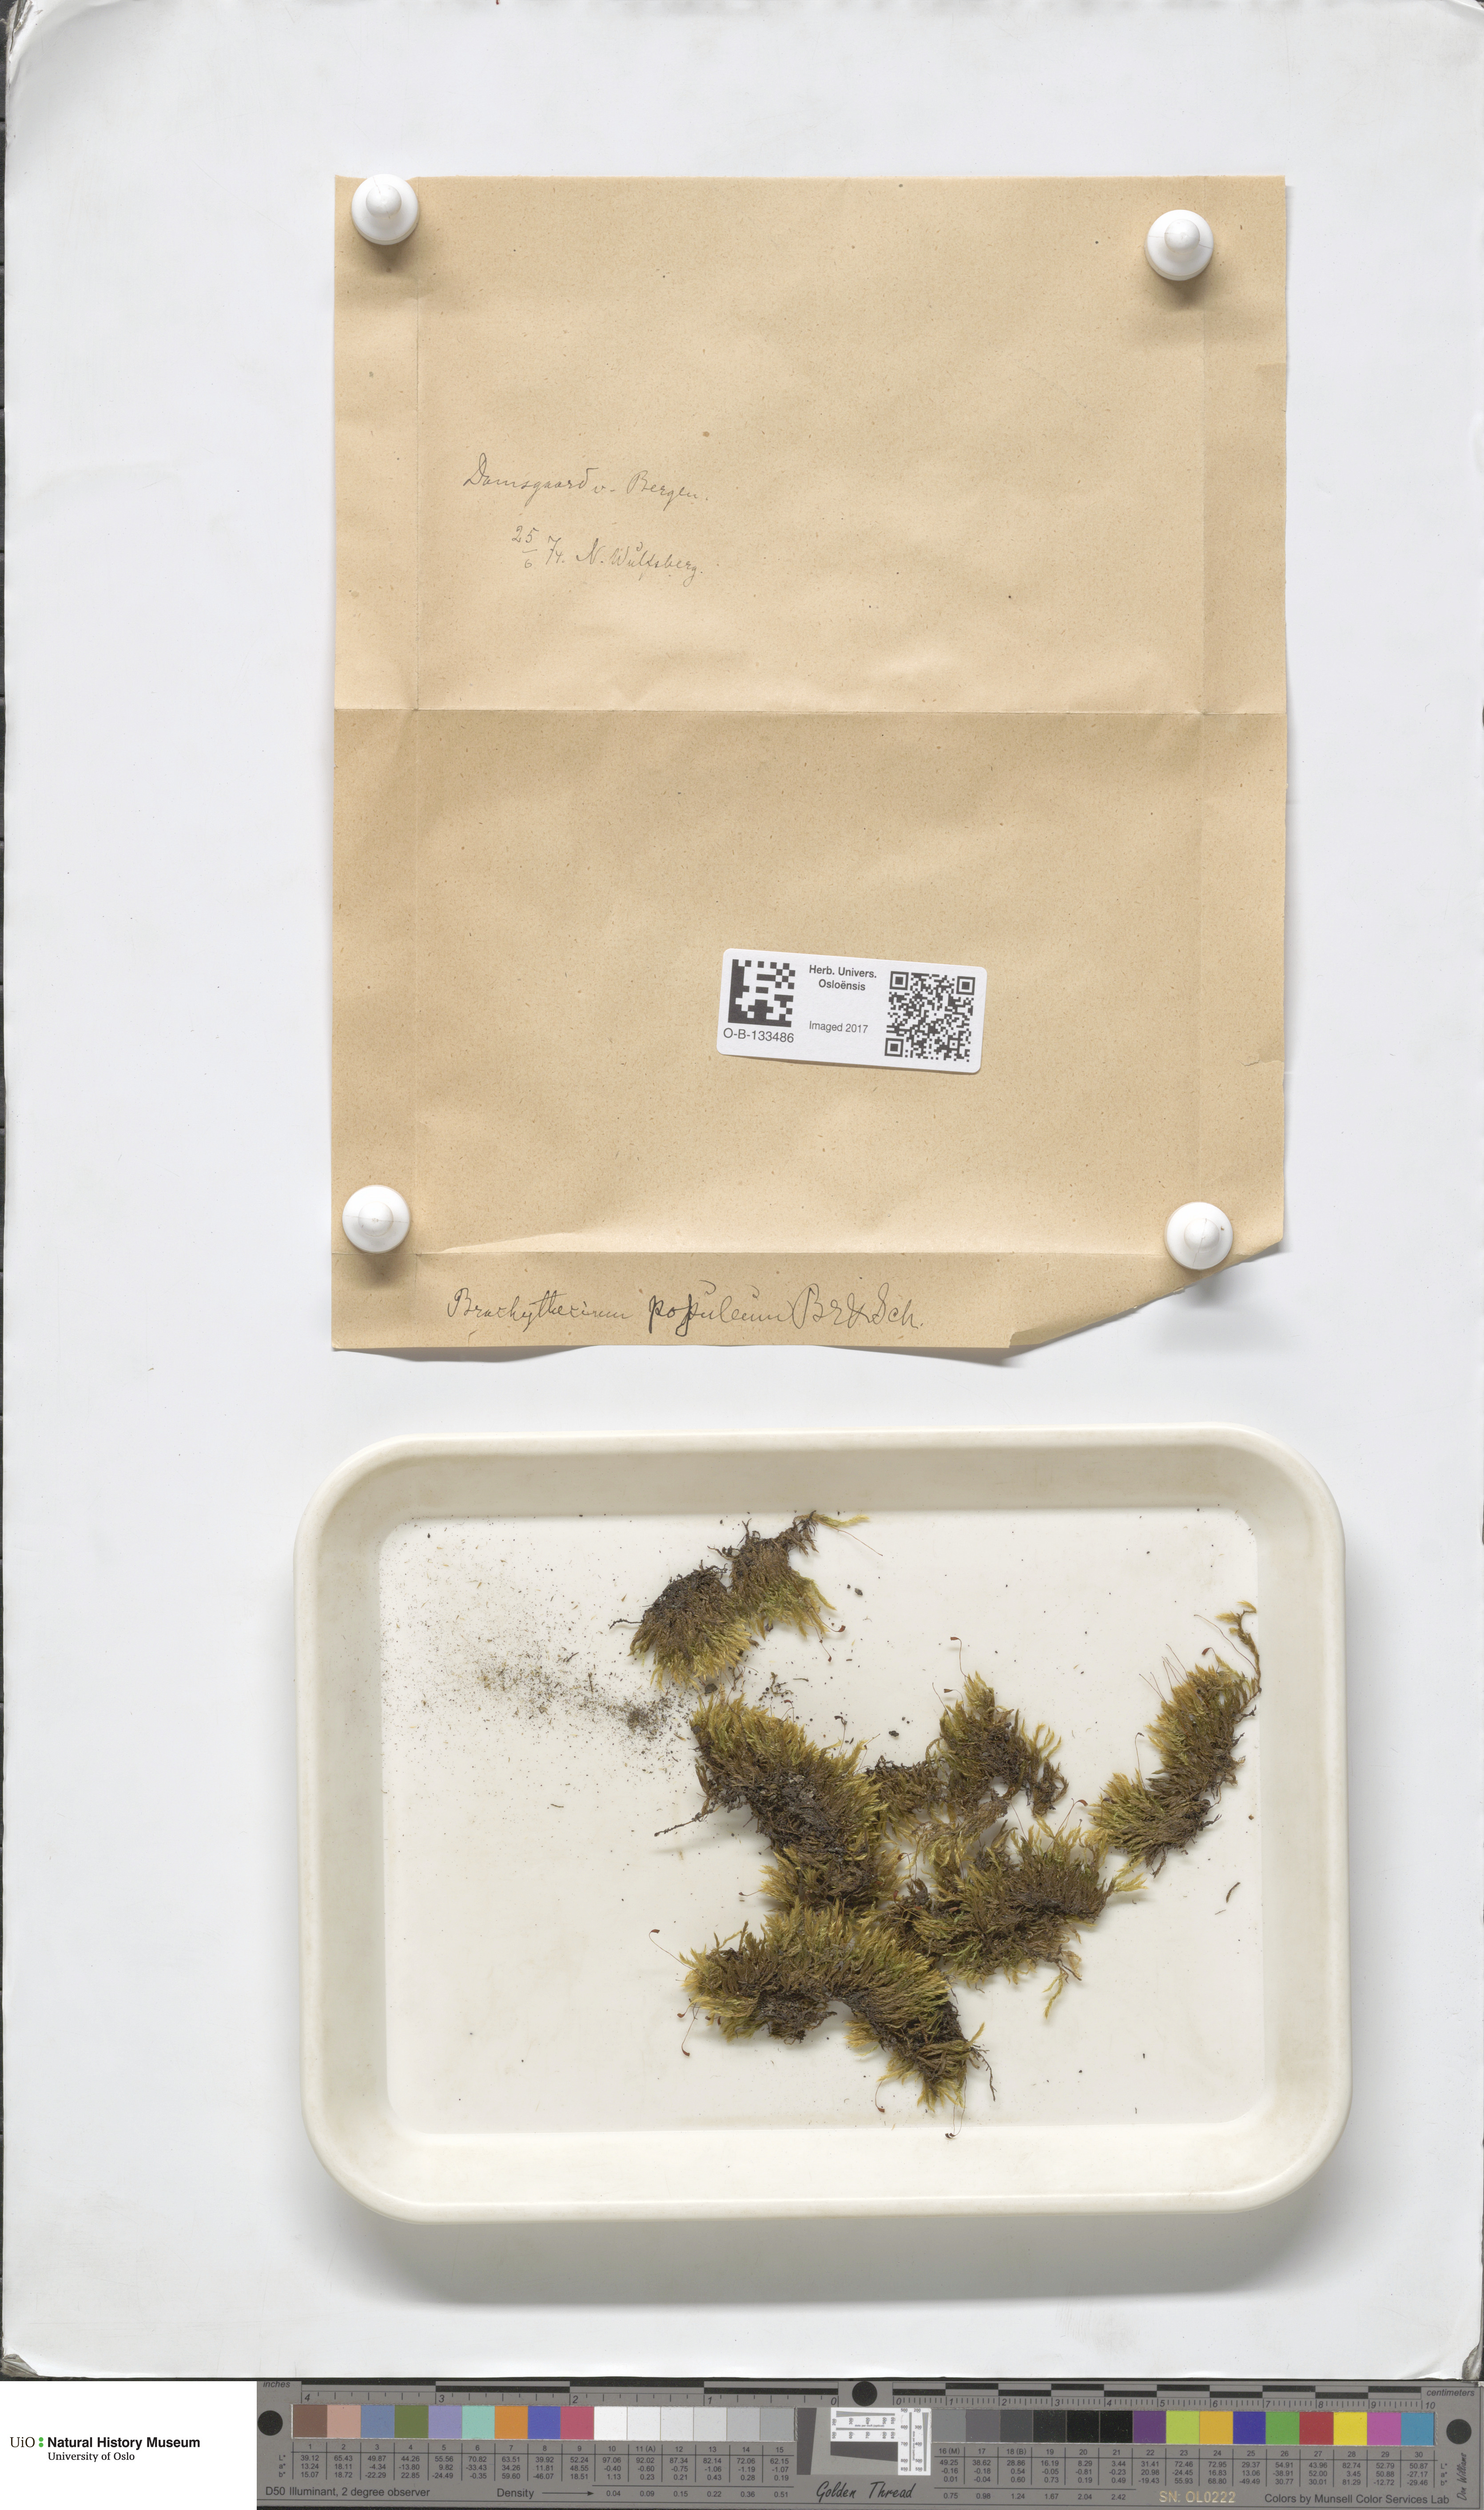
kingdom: Plantae
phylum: Bryophyta
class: Bryopsida
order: Hypnales
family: Brachytheciaceae
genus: Sciuro-hypnum
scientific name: Sciuro-hypnum plumosum
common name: Rusty feather-moss
